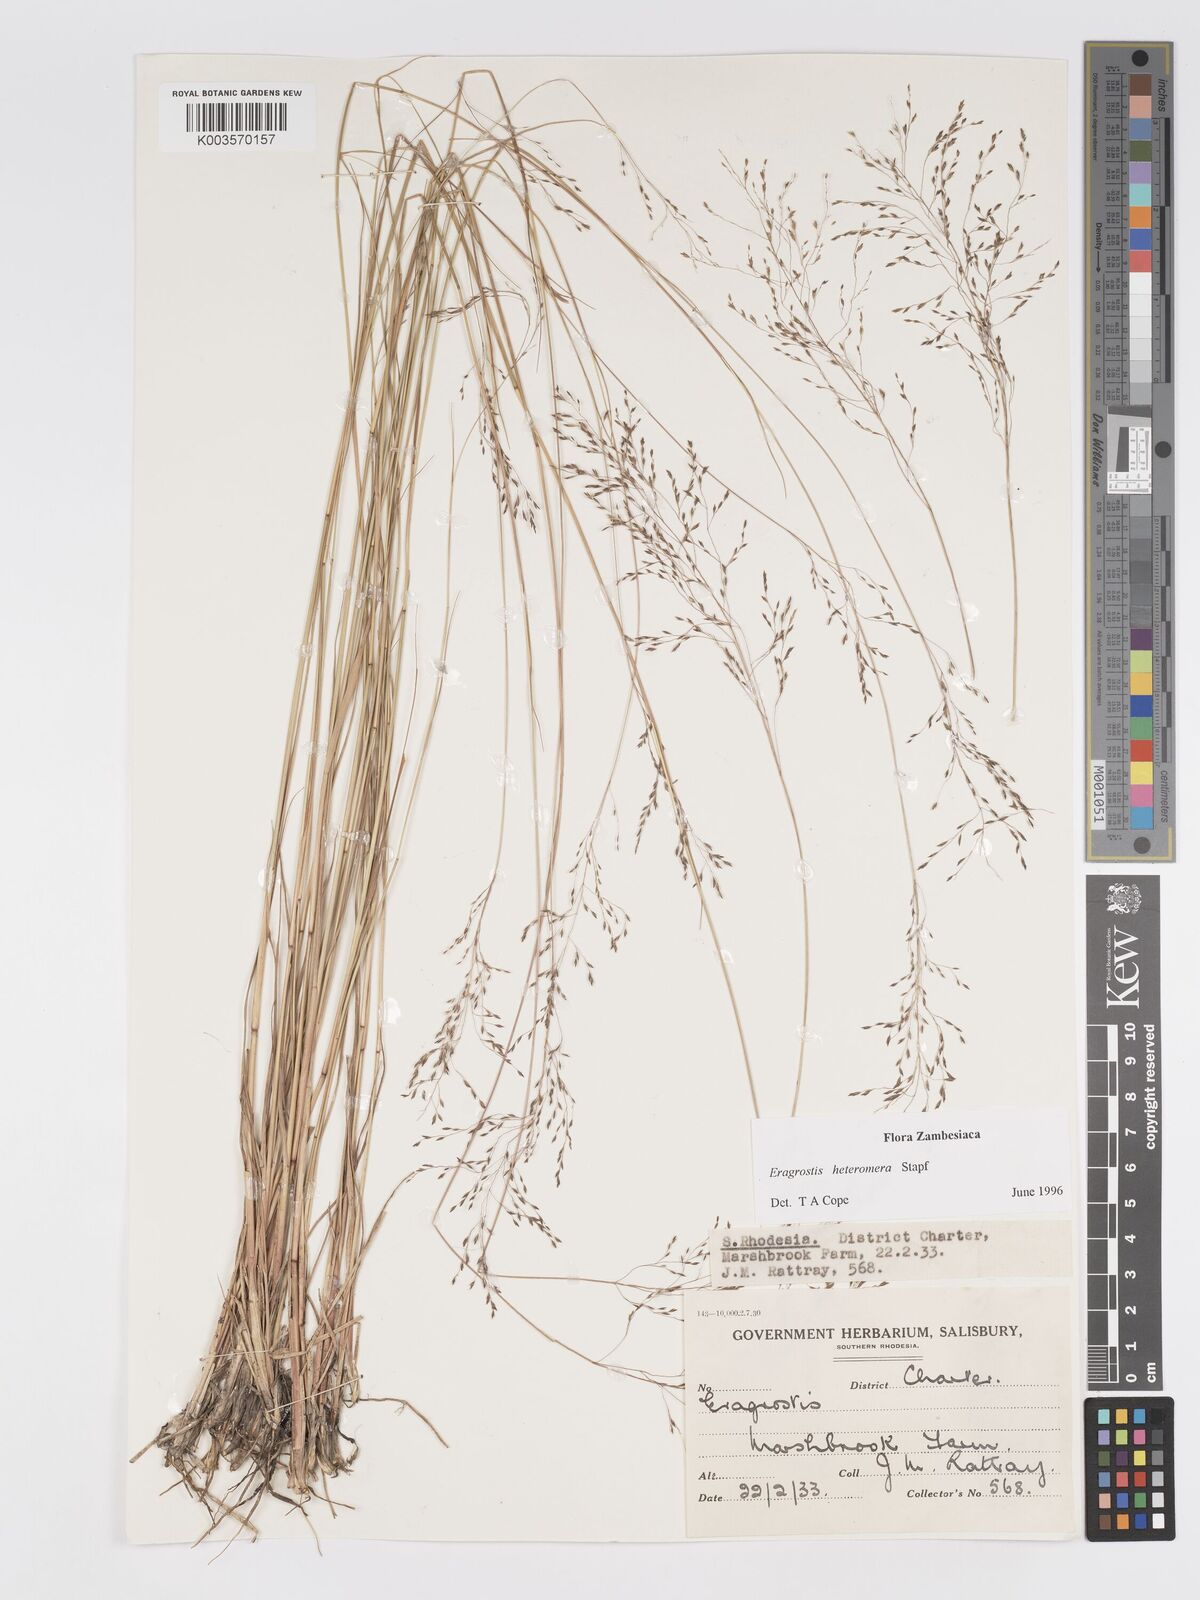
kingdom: Plantae
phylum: Tracheophyta
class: Liliopsida
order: Poales
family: Poaceae
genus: Eragrostis
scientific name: Eragrostis heteromera
